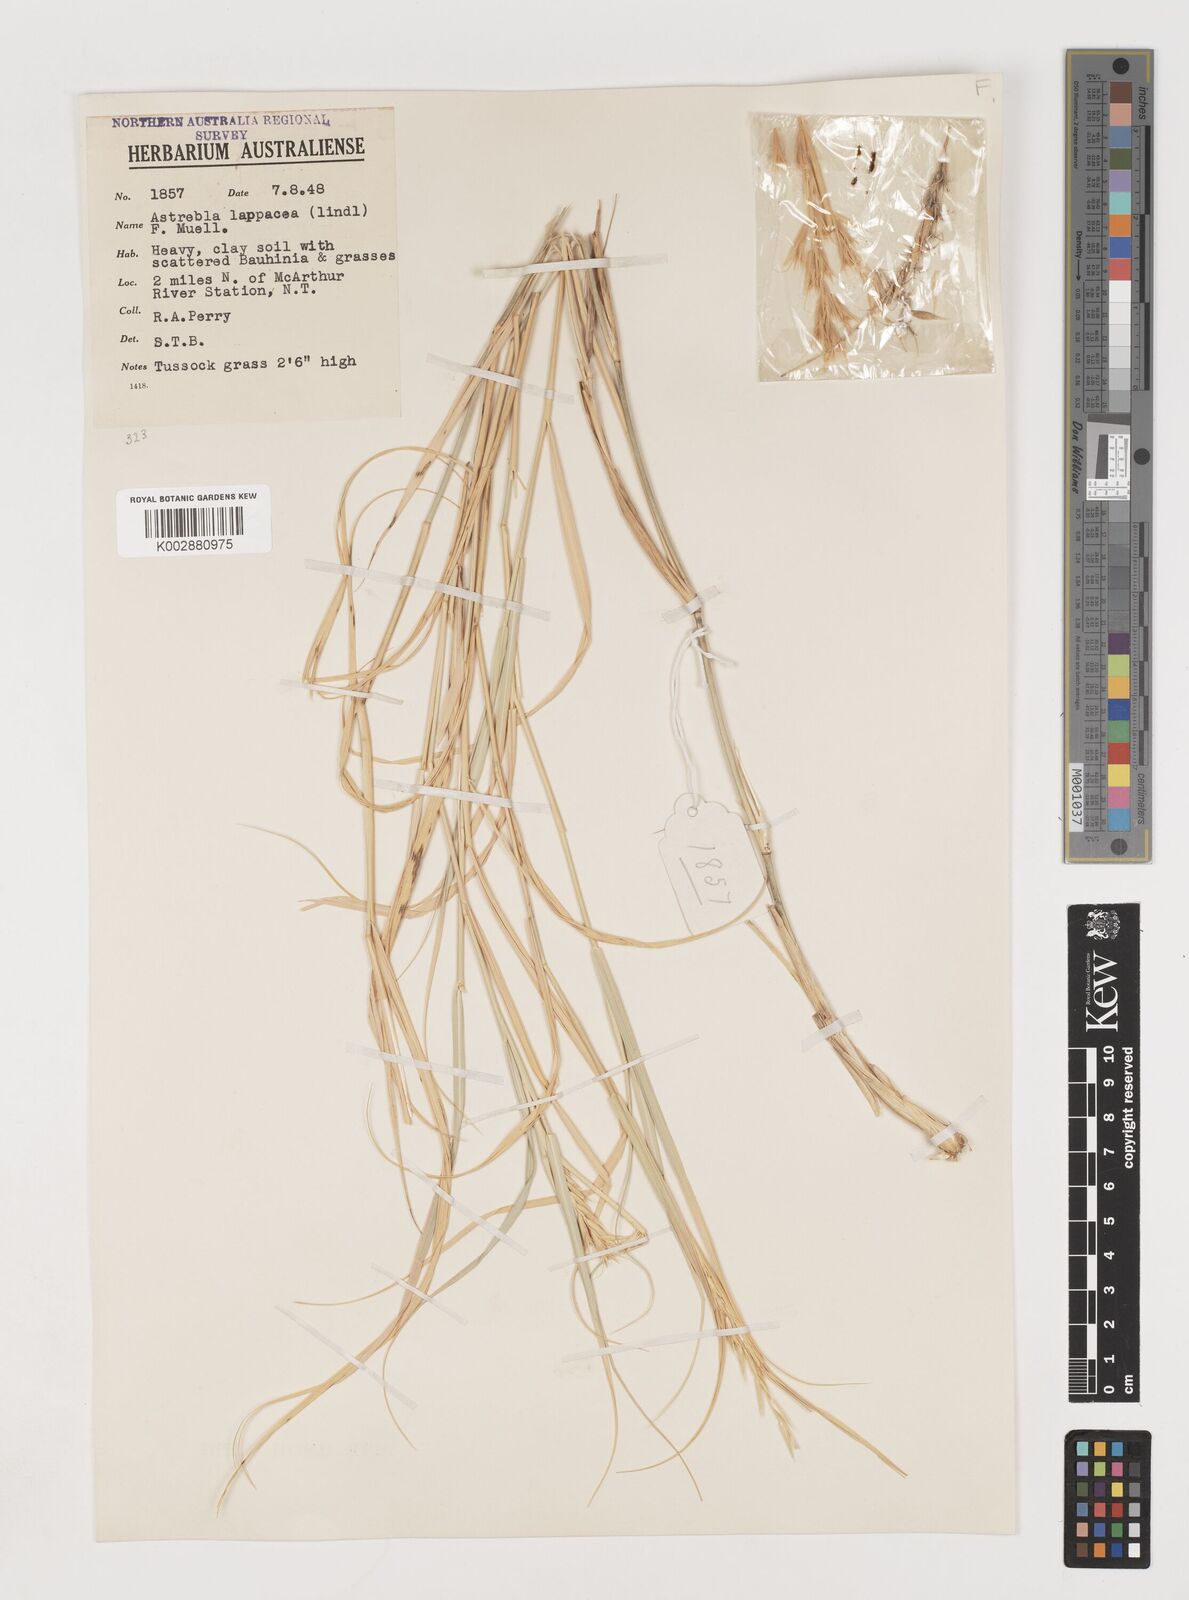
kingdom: Plantae
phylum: Tracheophyta
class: Liliopsida
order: Poales
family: Poaceae
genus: Astrebla
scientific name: Astrebla lappacea
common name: Curly mitchell grass
